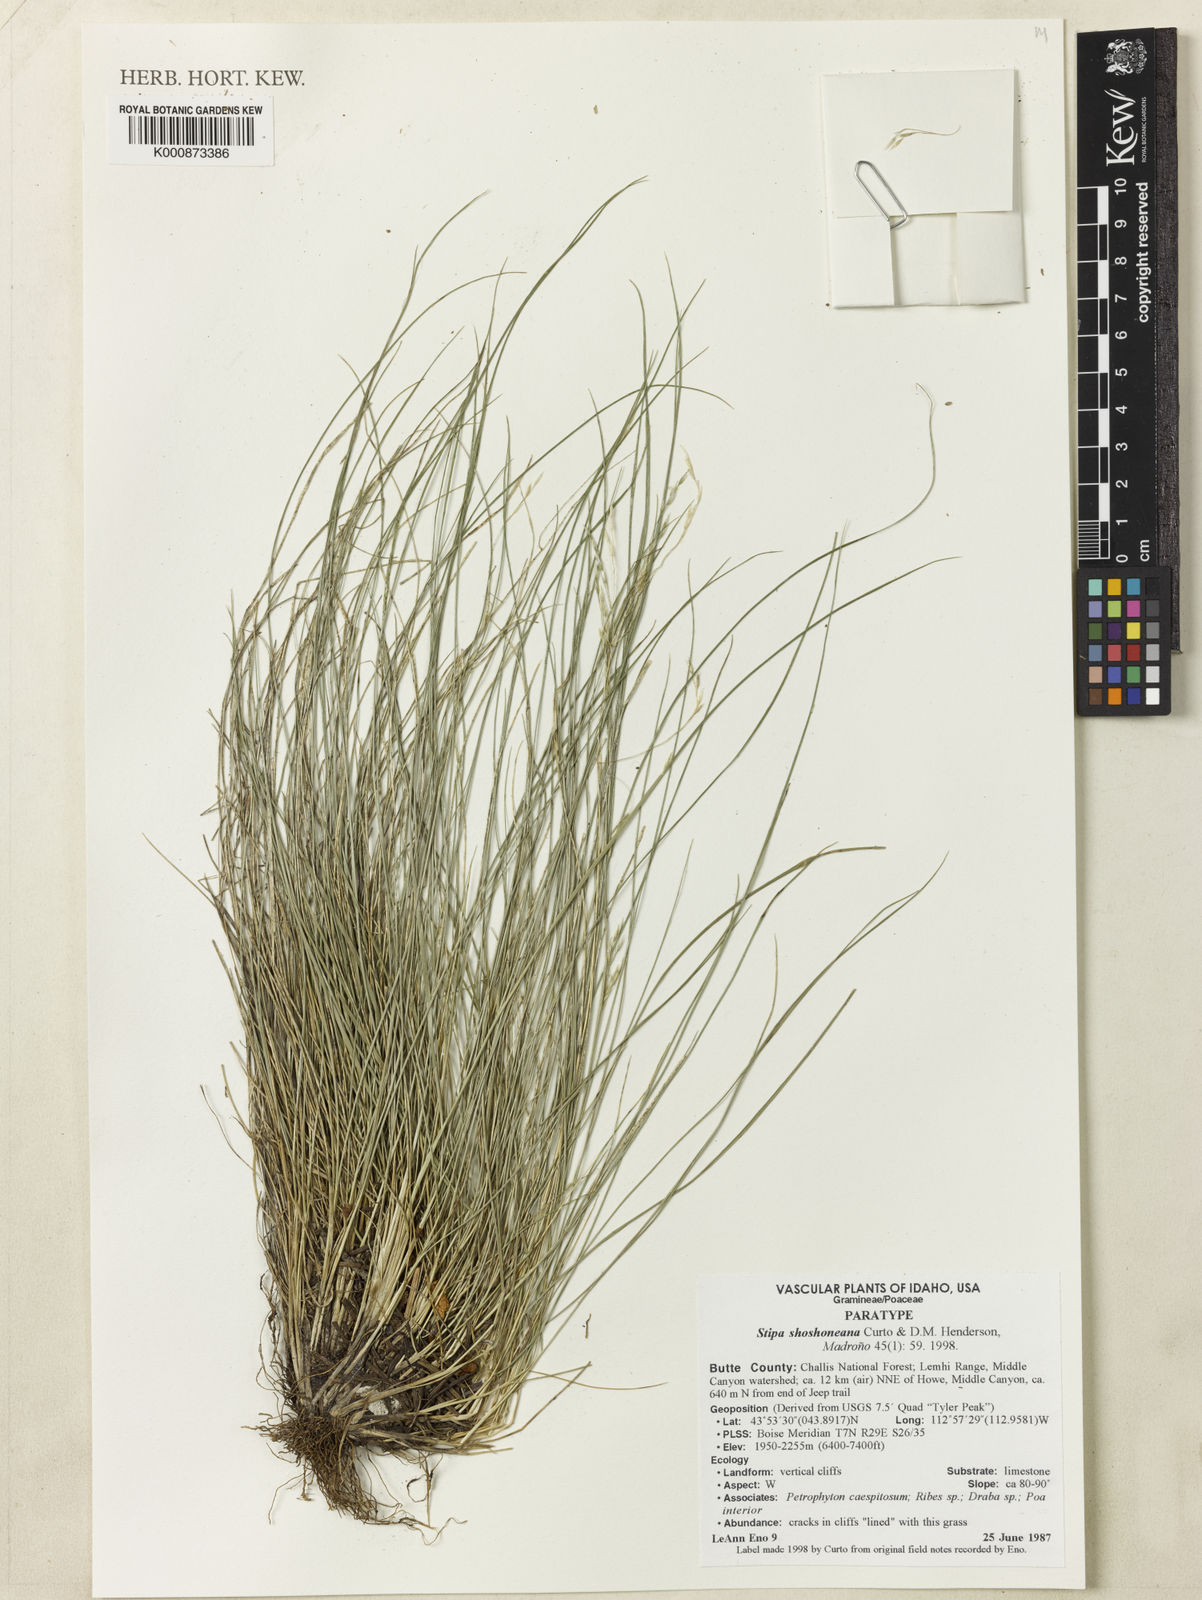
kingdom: Plantae
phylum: Tracheophyta
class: Liliopsida
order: Poales
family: Poaceae
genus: Piptatheropsis
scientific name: Piptatheropsis shoshoneana
